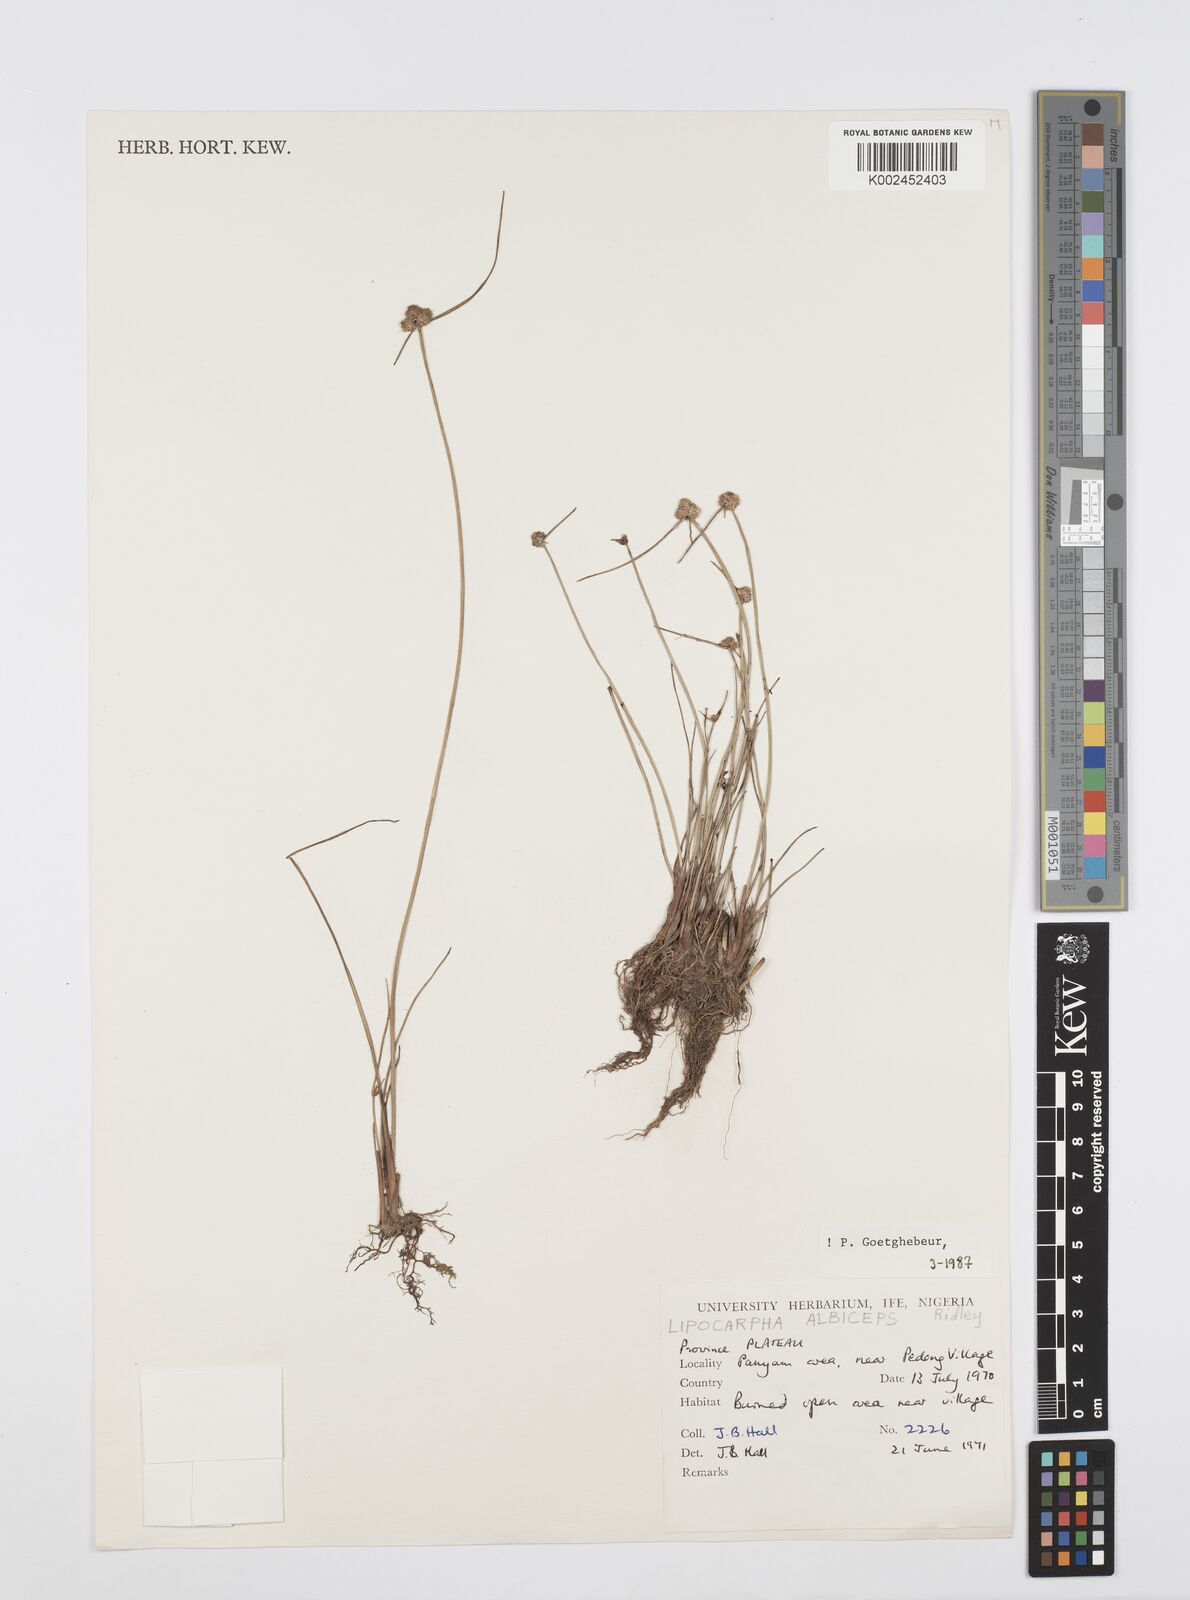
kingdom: Plantae
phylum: Tracheophyta
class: Liliopsida
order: Poales
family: Cyperaceae
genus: Cyperus
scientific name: Cyperus albiceps
